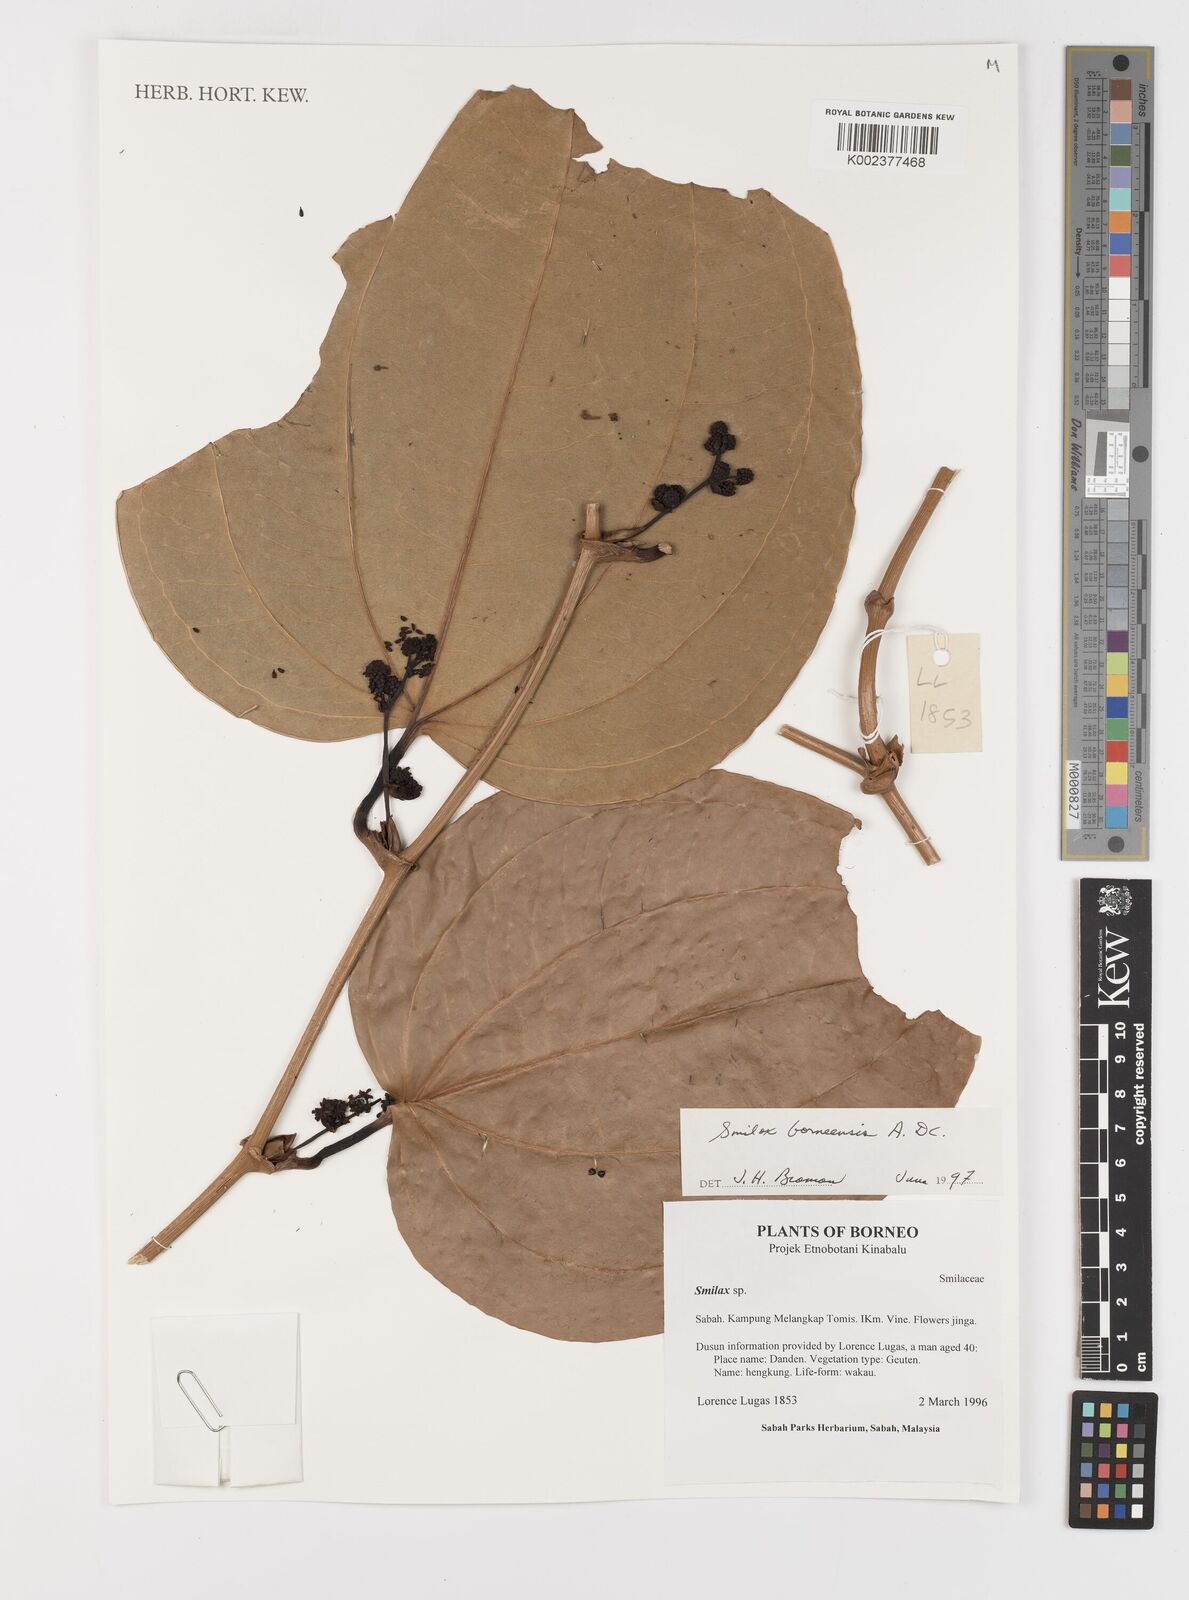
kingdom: Plantae
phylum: Tracheophyta
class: Liliopsida
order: Liliales
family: Smilacaceae
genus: Smilax
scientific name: Smilax borneensis
